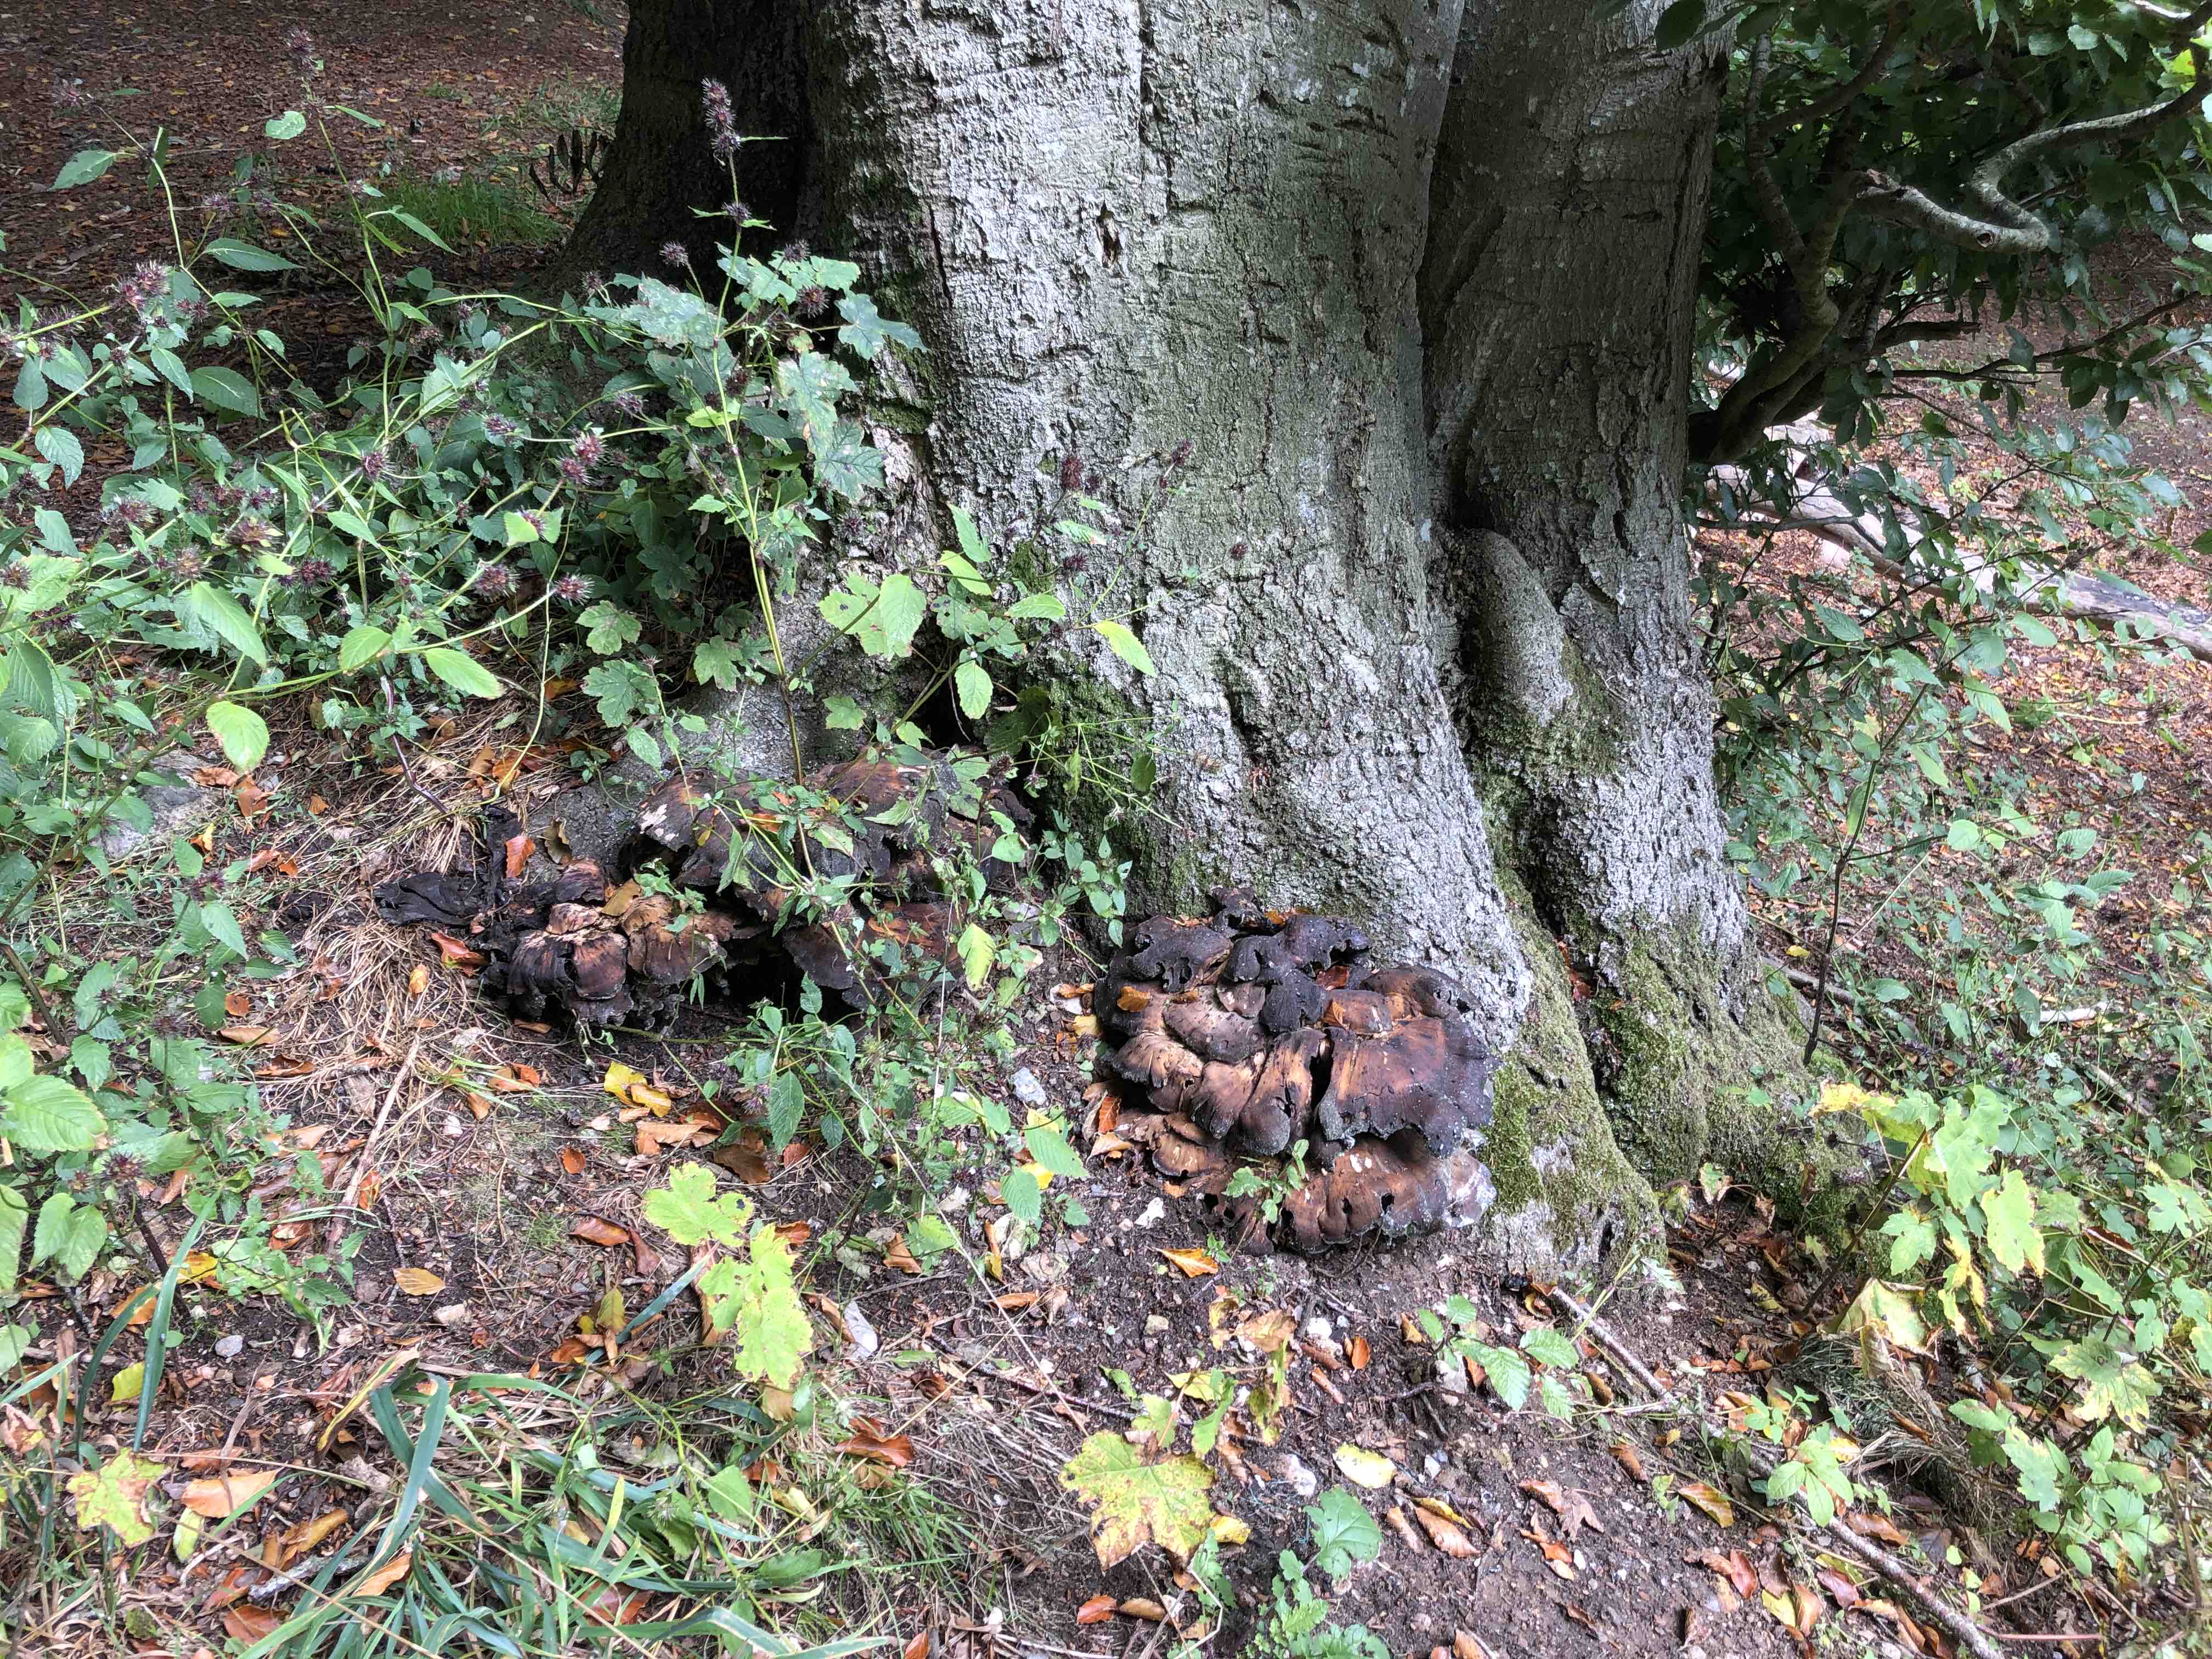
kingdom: Fungi
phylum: Basidiomycota
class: Agaricomycetes
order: Polyporales
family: Meripilaceae
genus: Meripilus
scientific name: Meripilus giganteus
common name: kæmpeporesvamp
